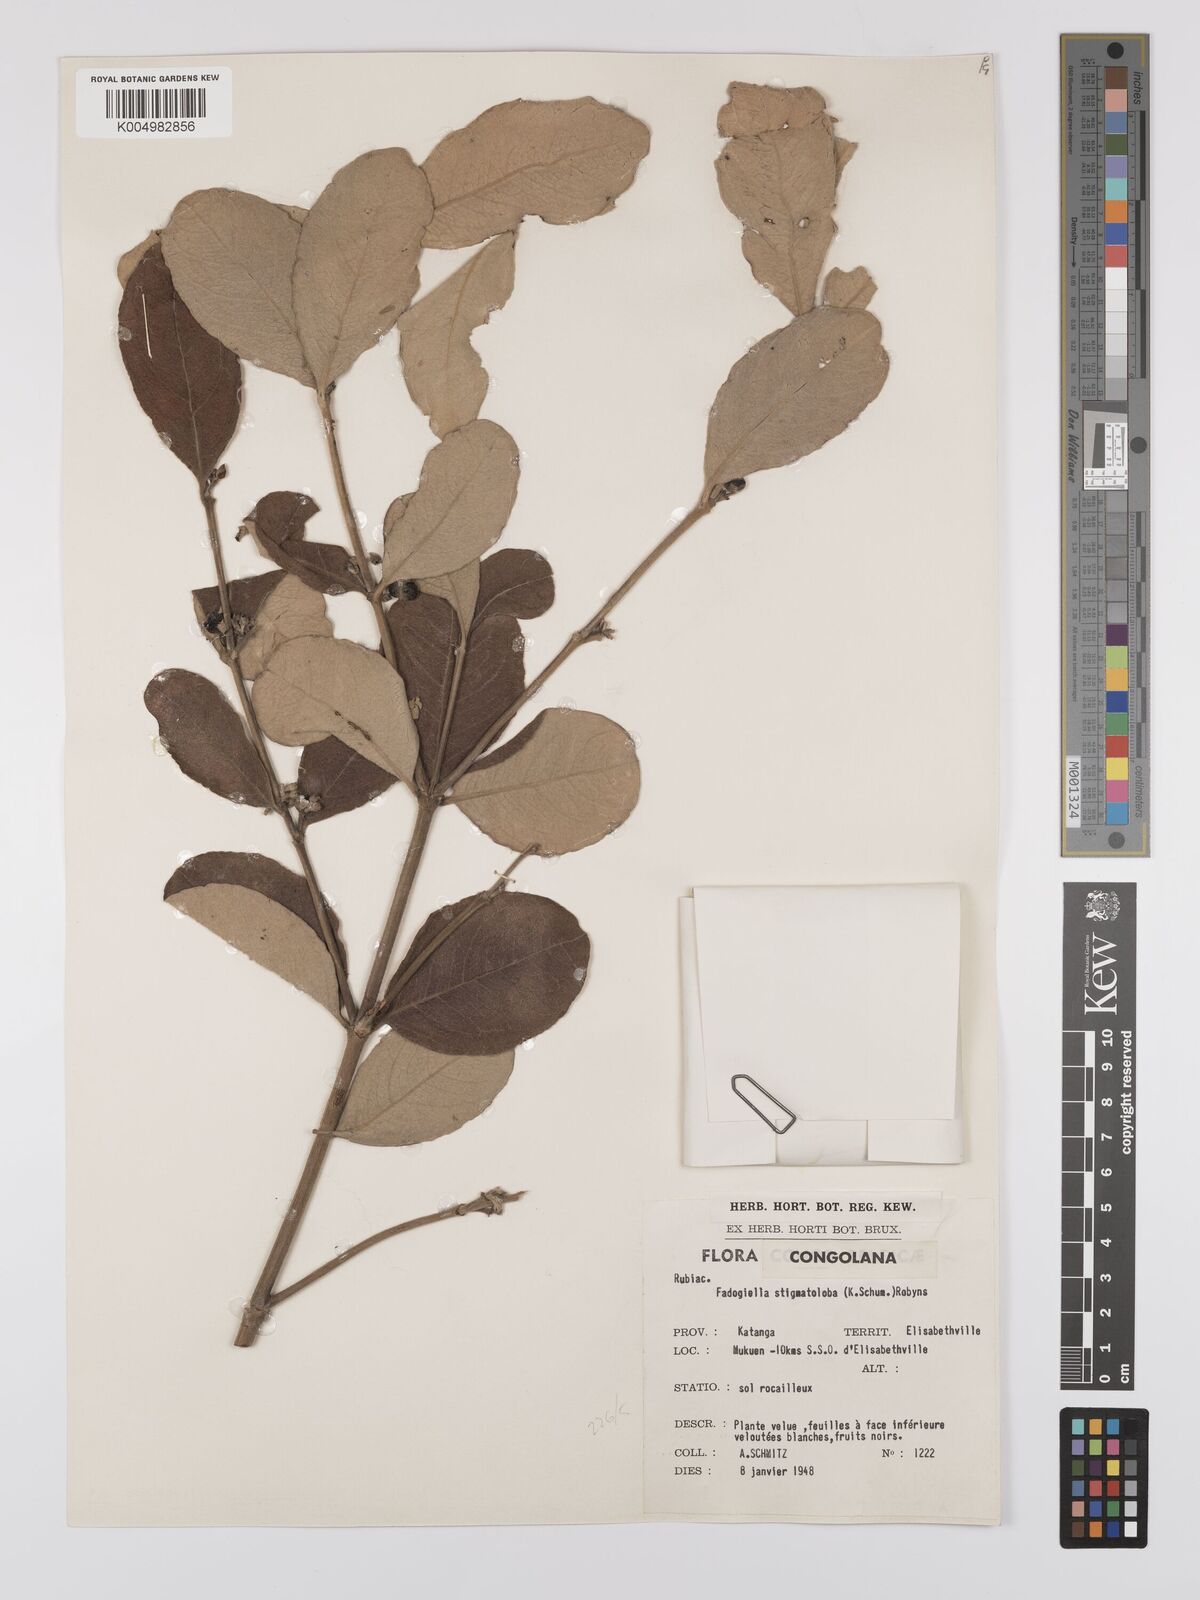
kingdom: Plantae
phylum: Tracheophyta
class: Magnoliopsida
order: Gentianales
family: Rubiaceae
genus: Fadogiella
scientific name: Fadogiella stigmatoloba
